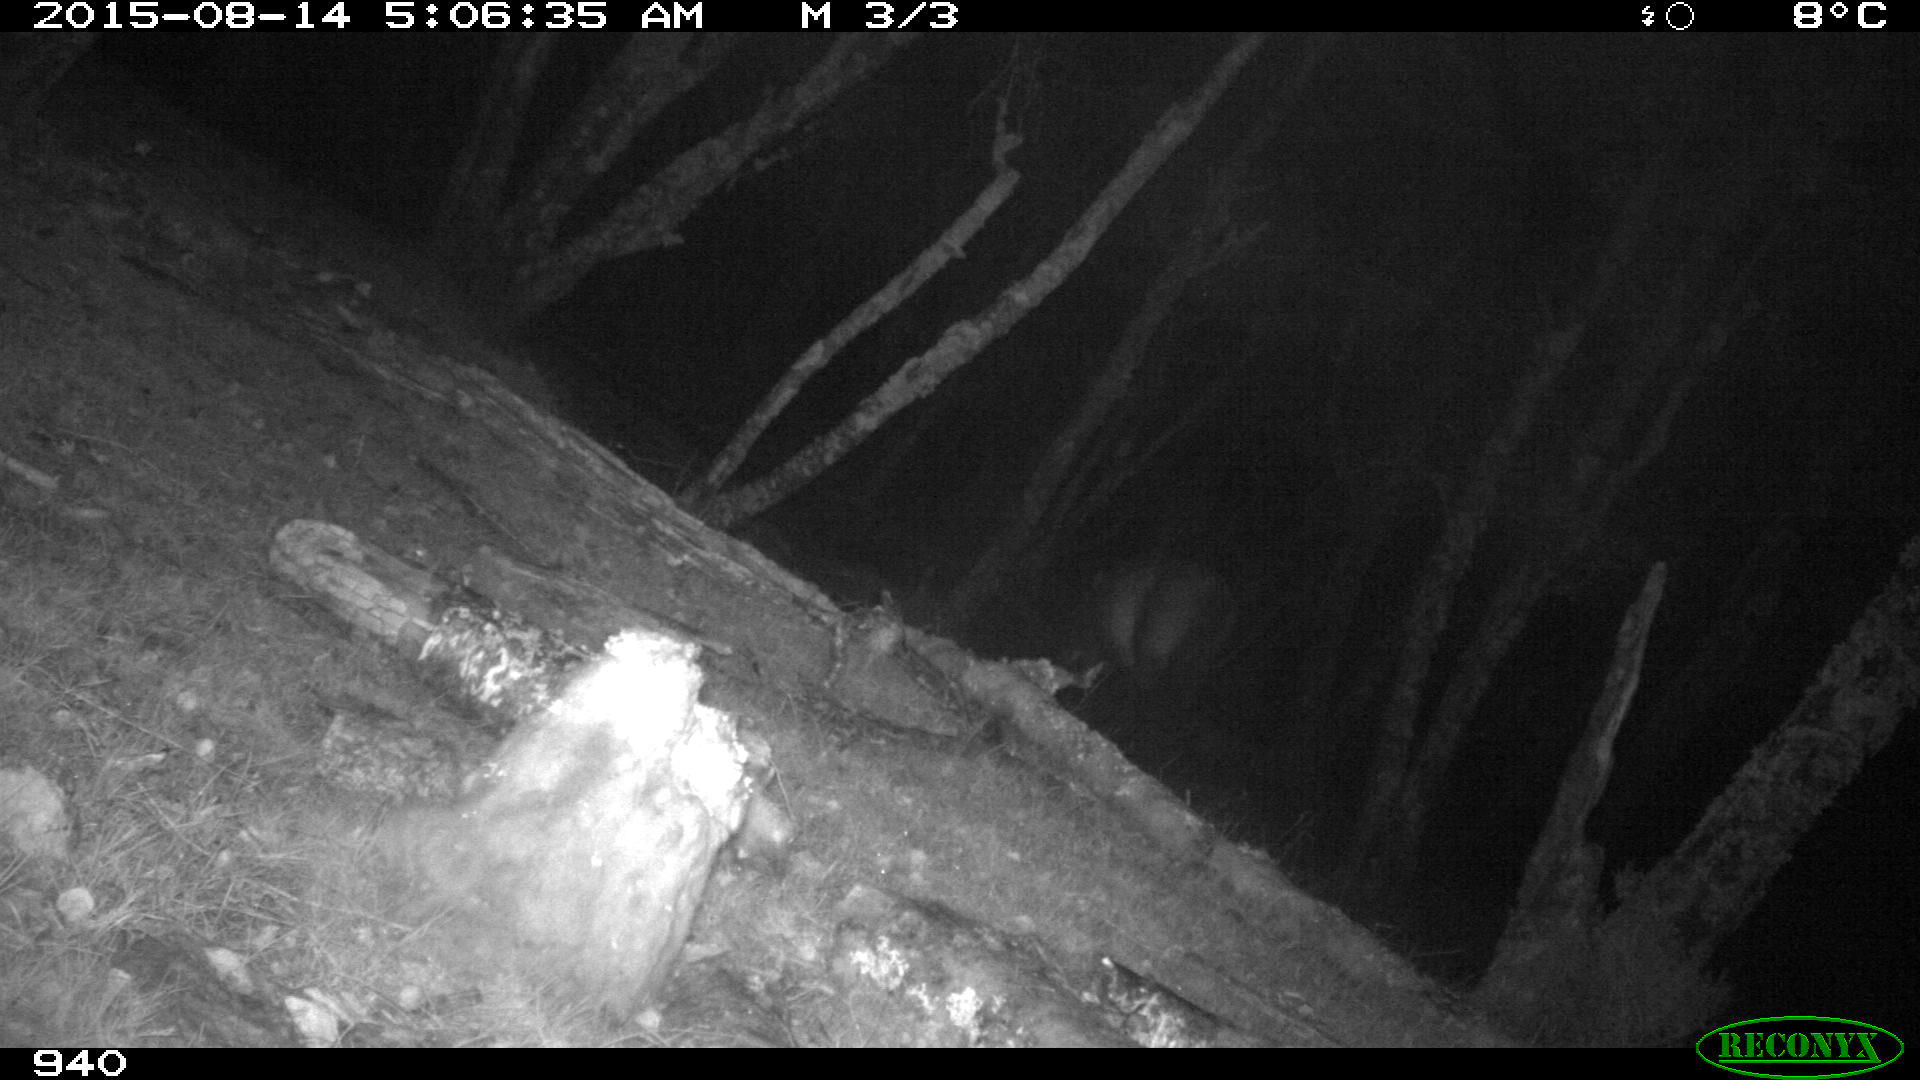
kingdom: Animalia
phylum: Chordata
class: Mammalia
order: Perissodactyla
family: Equidae
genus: Equus
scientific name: Equus caballus
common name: Horse
